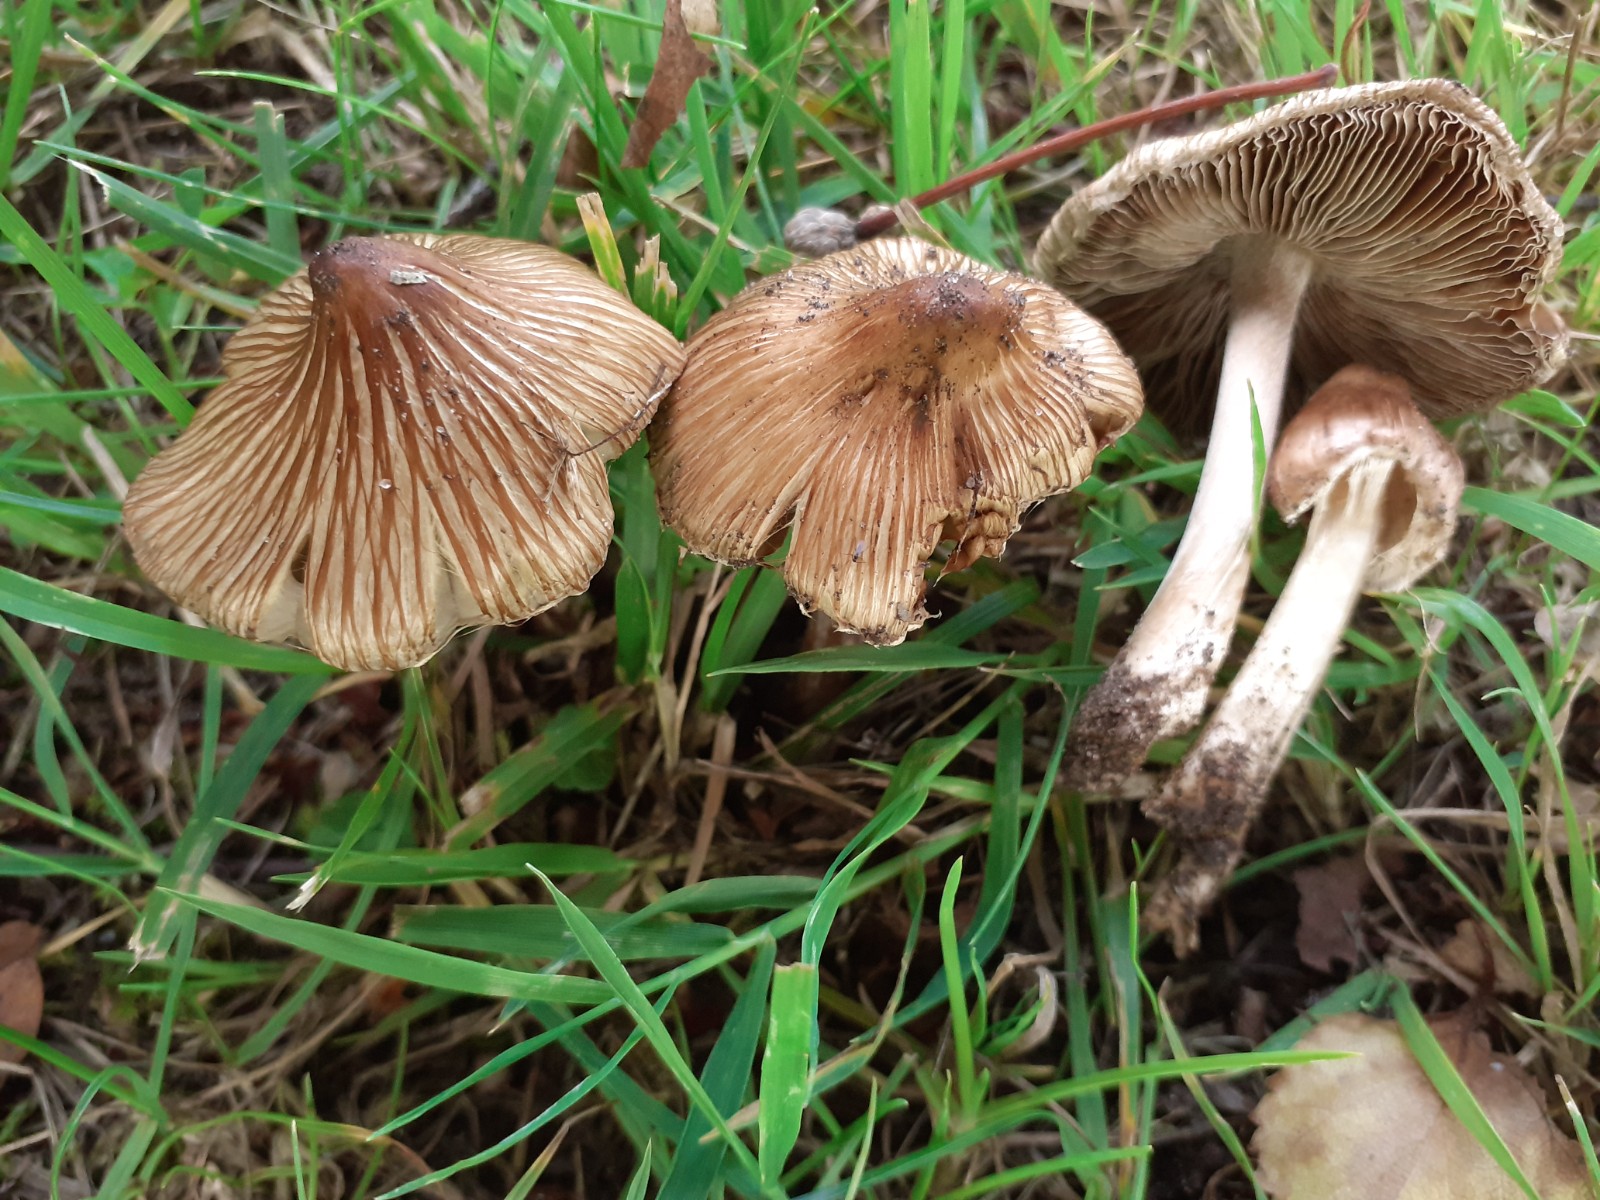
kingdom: Fungi
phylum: Basidiomycota
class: Agaricomycetes
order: Agaricales
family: Inocybaceae
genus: Pseudosperma
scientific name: Pseudosperma melliolens
